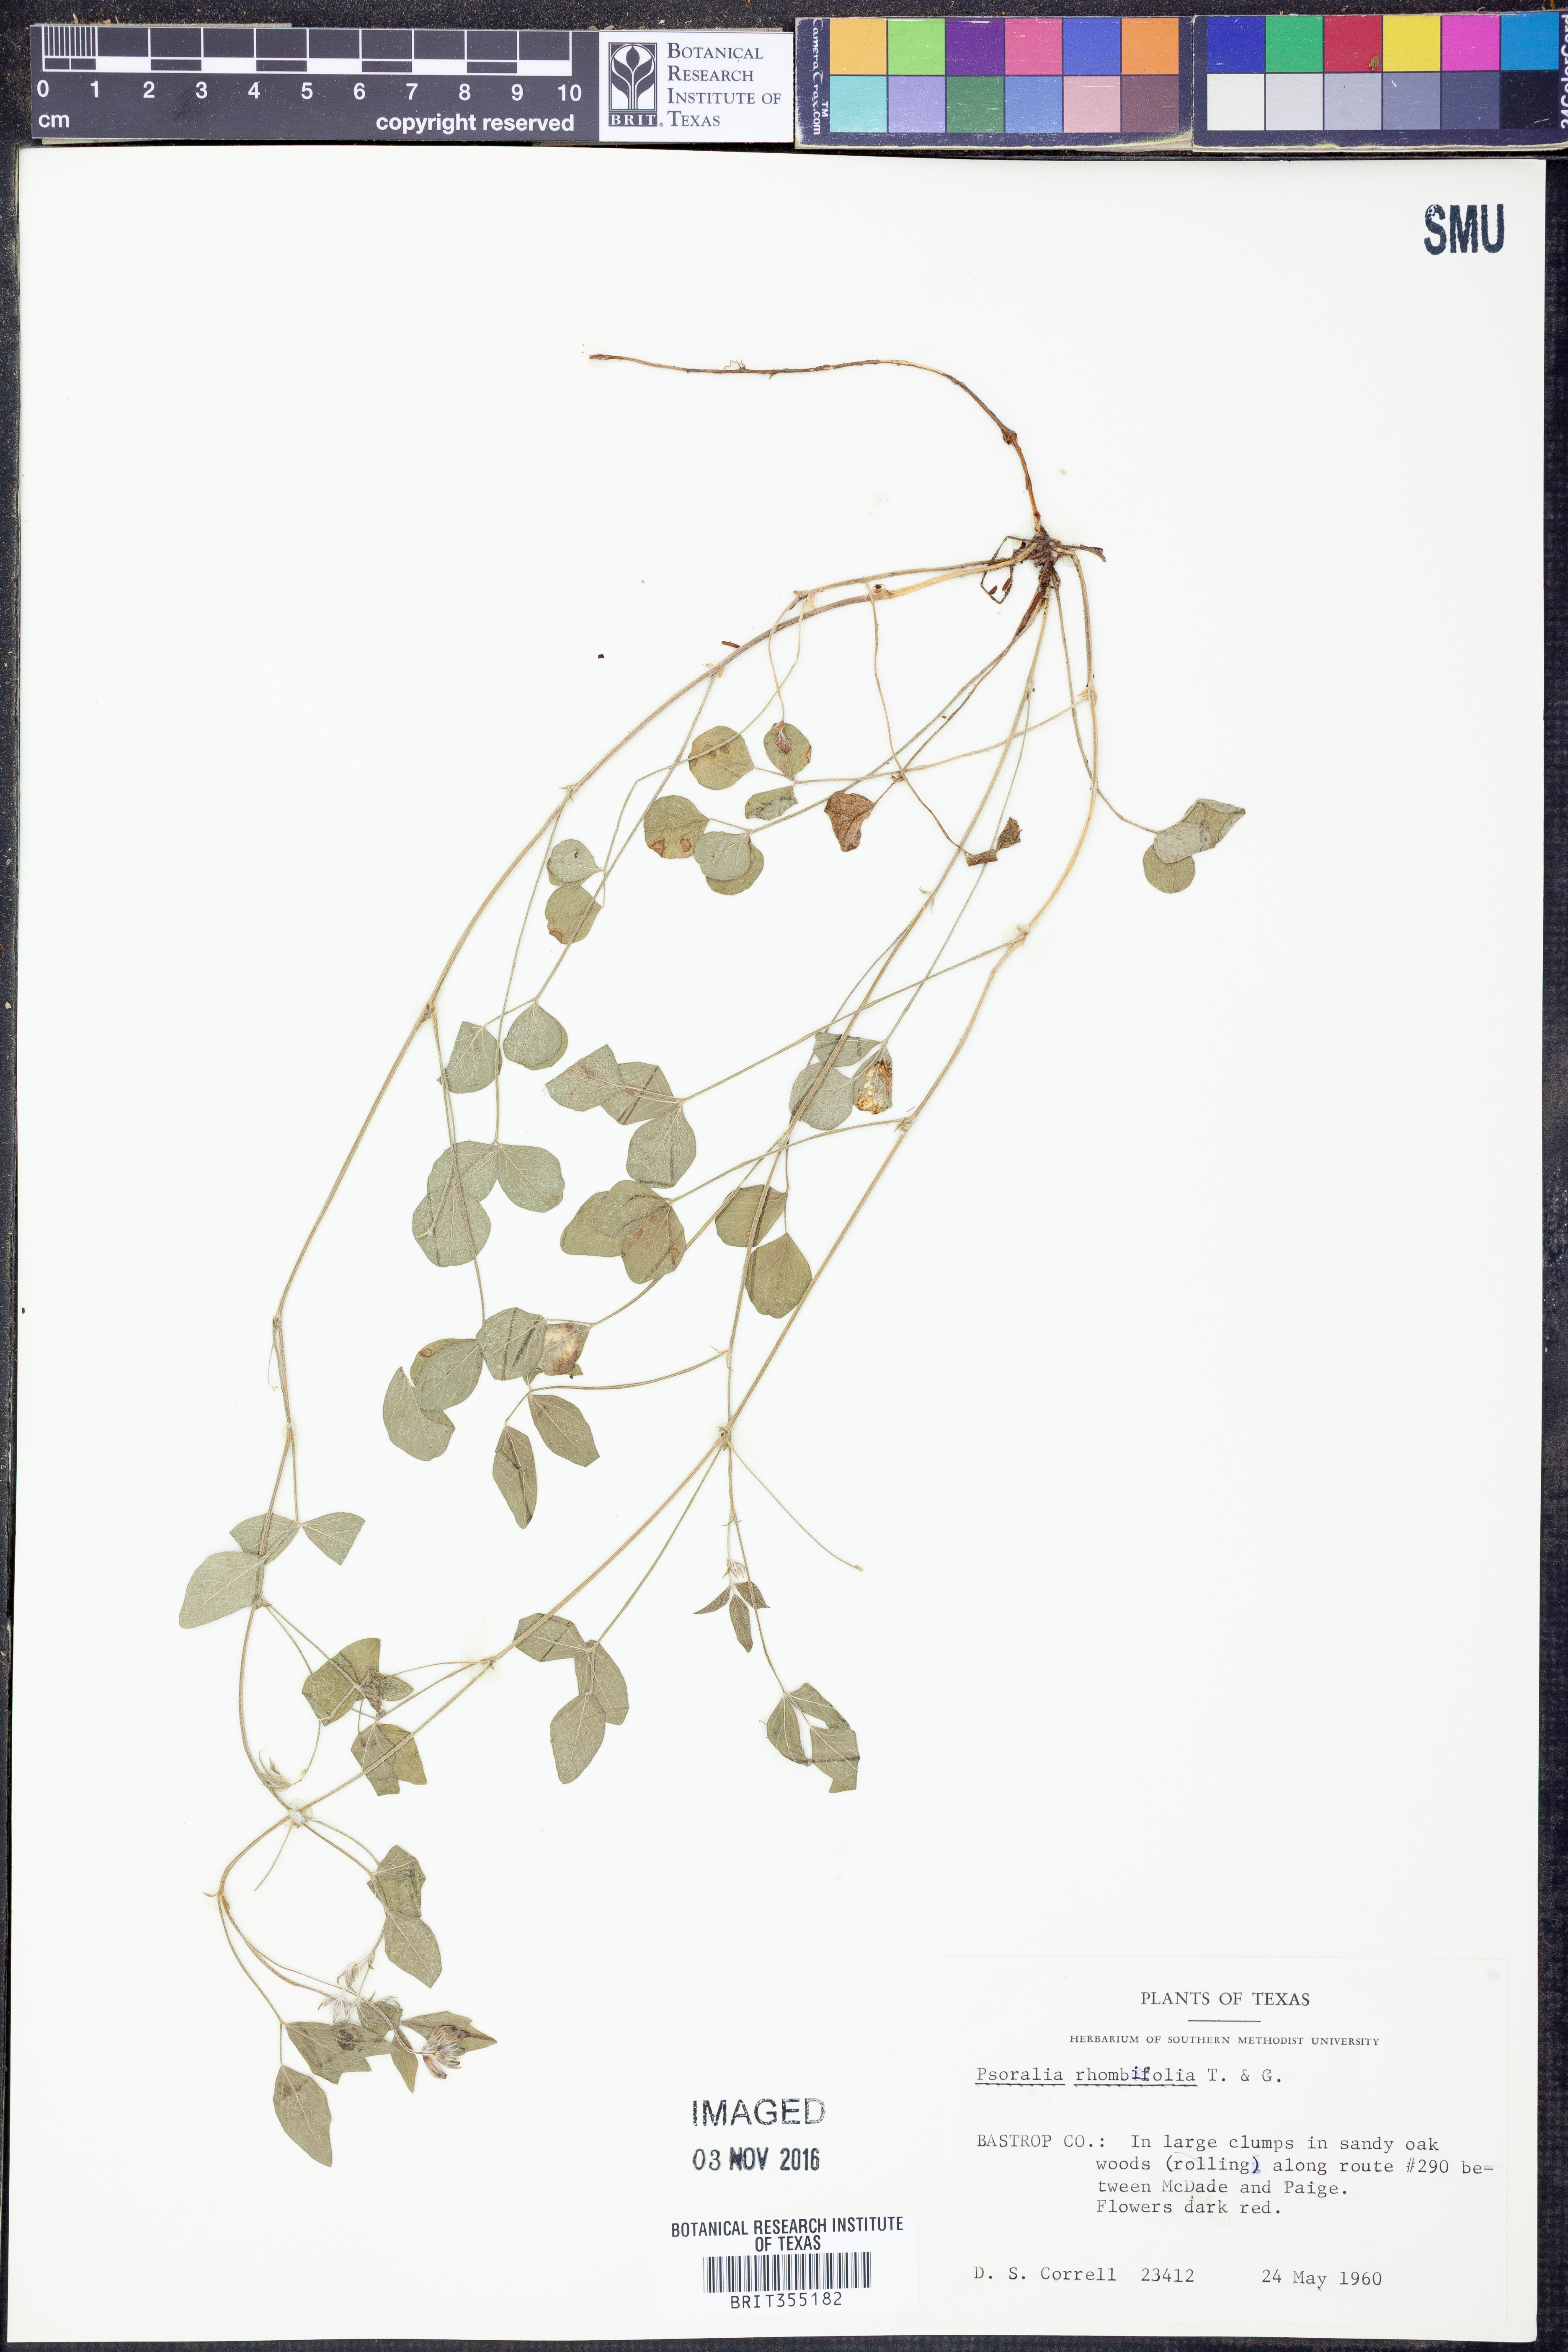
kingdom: Plantae
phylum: Tracheophyta
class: Magnoliopsida
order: Fabales
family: Fabaceae
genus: Pediomelum
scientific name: Pediomelum rhombifolium
